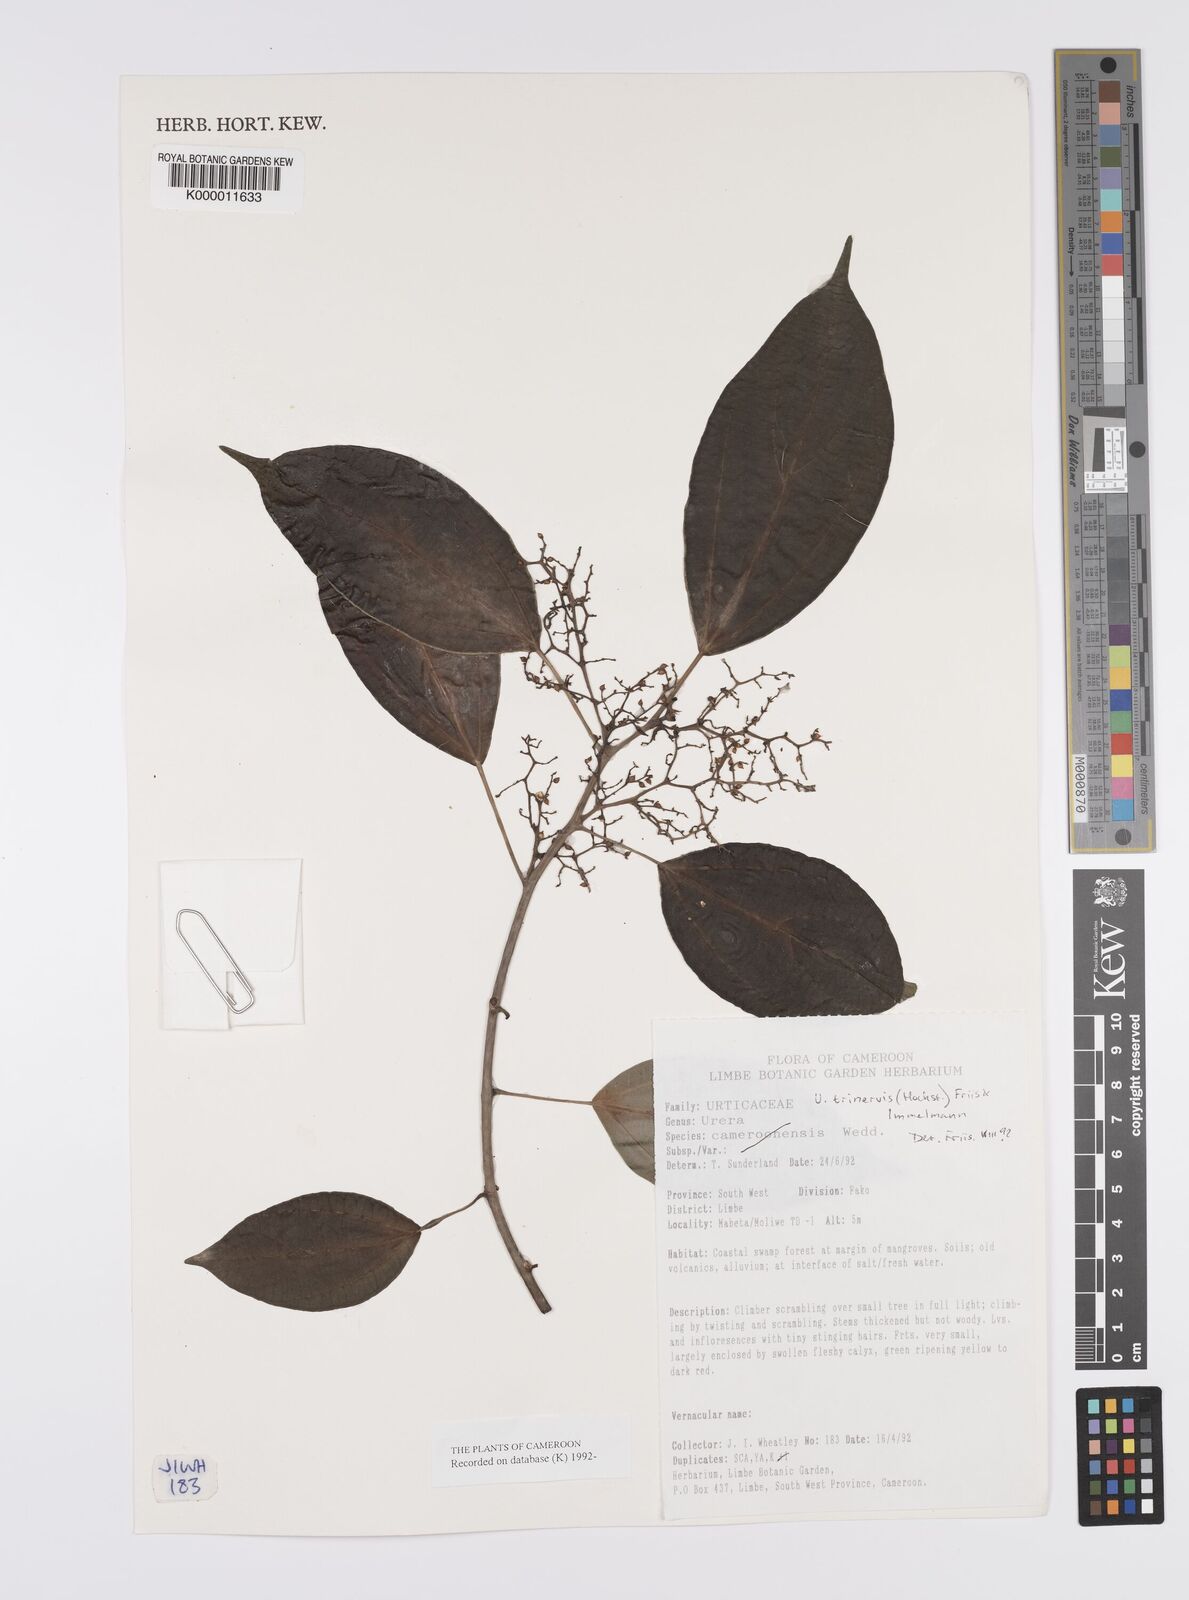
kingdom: Plantae
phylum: Tracheophyta
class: Magnoliopsida
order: Rosales
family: Urticaceae
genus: Scepocarpus
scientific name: Scepocarpus trinervis
